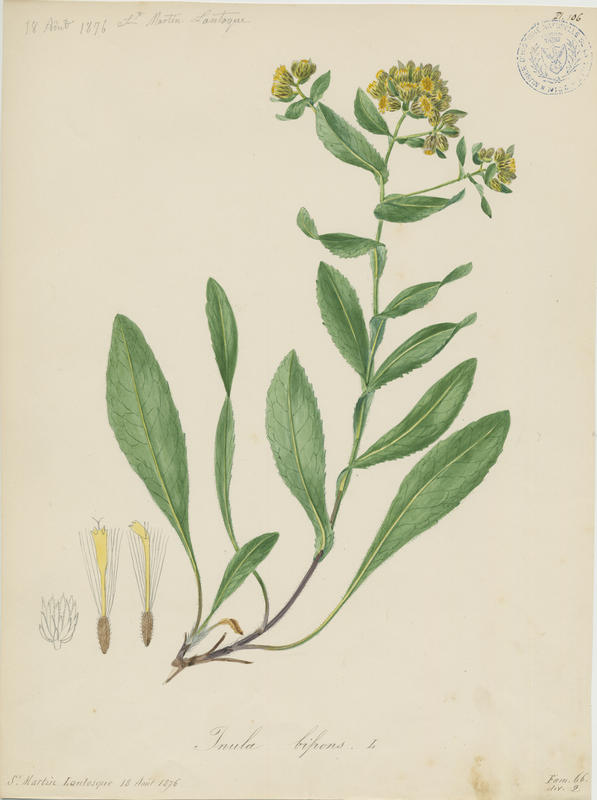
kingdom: Plantae
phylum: Tracheophyta
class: Magnoliopsida
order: Asterales
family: Asteraceae
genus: Pentanema
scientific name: Pentanema bifrons
